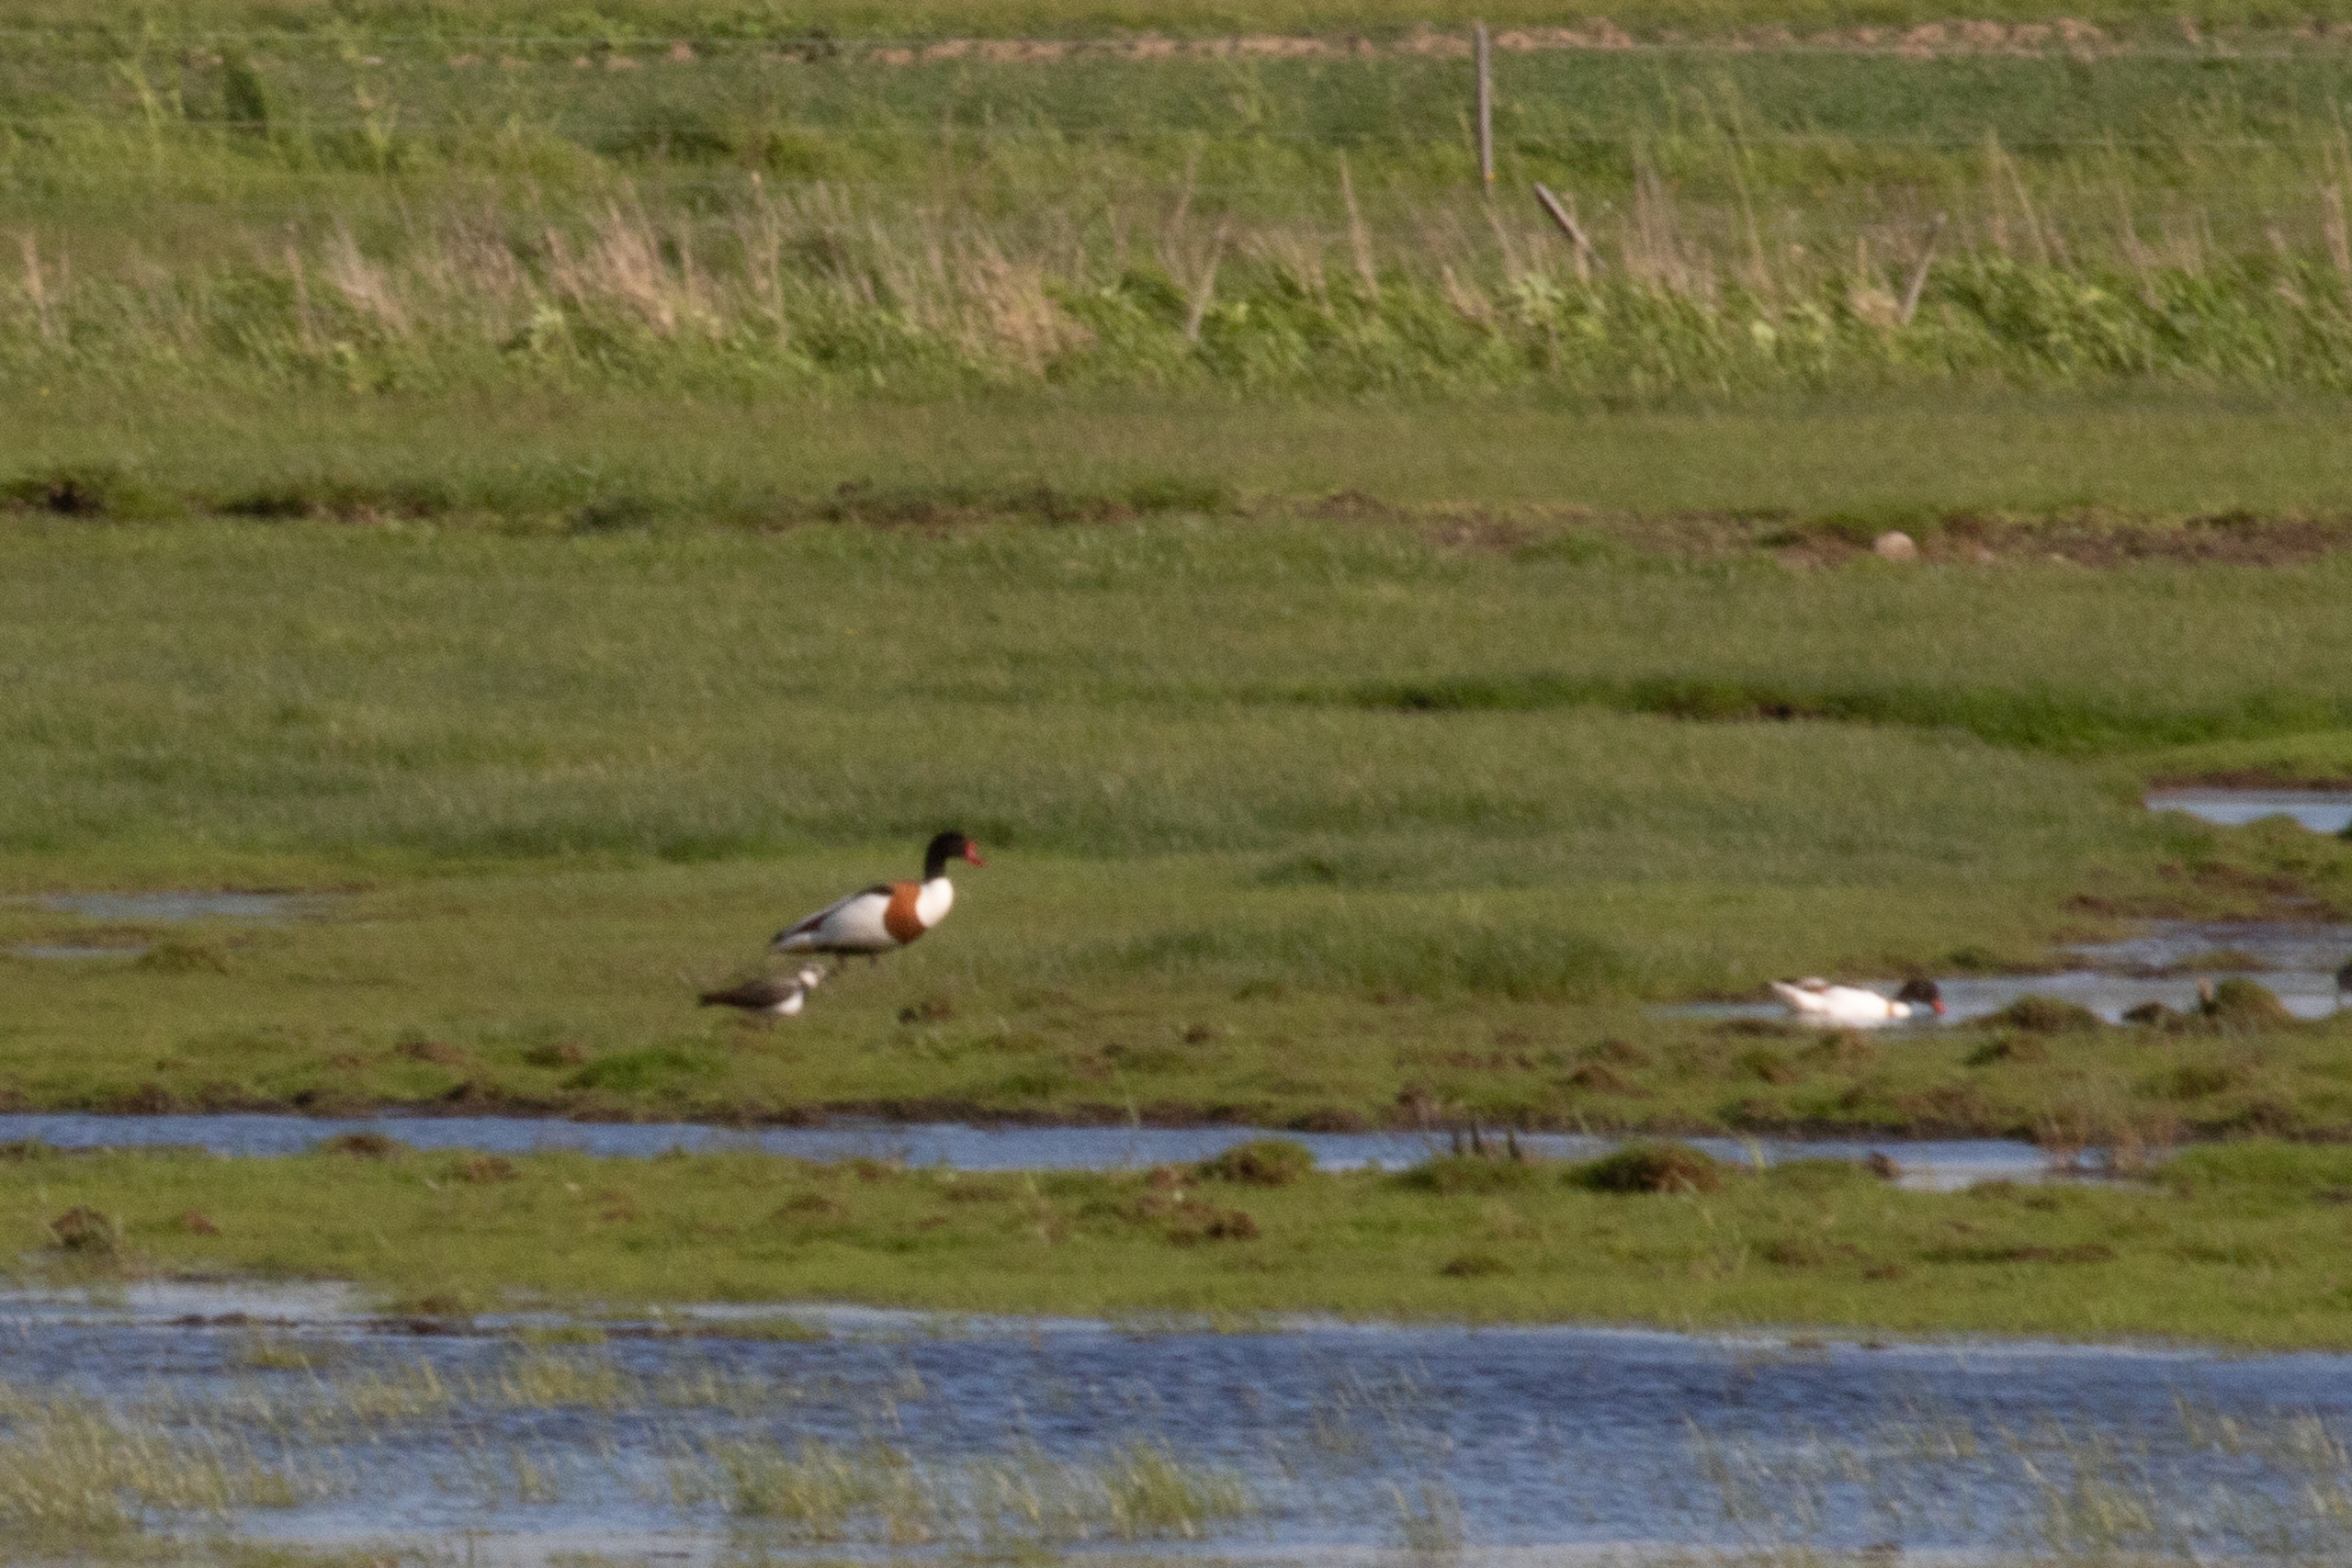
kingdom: Animalia
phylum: Chordata
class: Aves
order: Anseriformes
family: Anatidae
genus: Tadorna
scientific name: Tadorna tadorna
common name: Gravand
